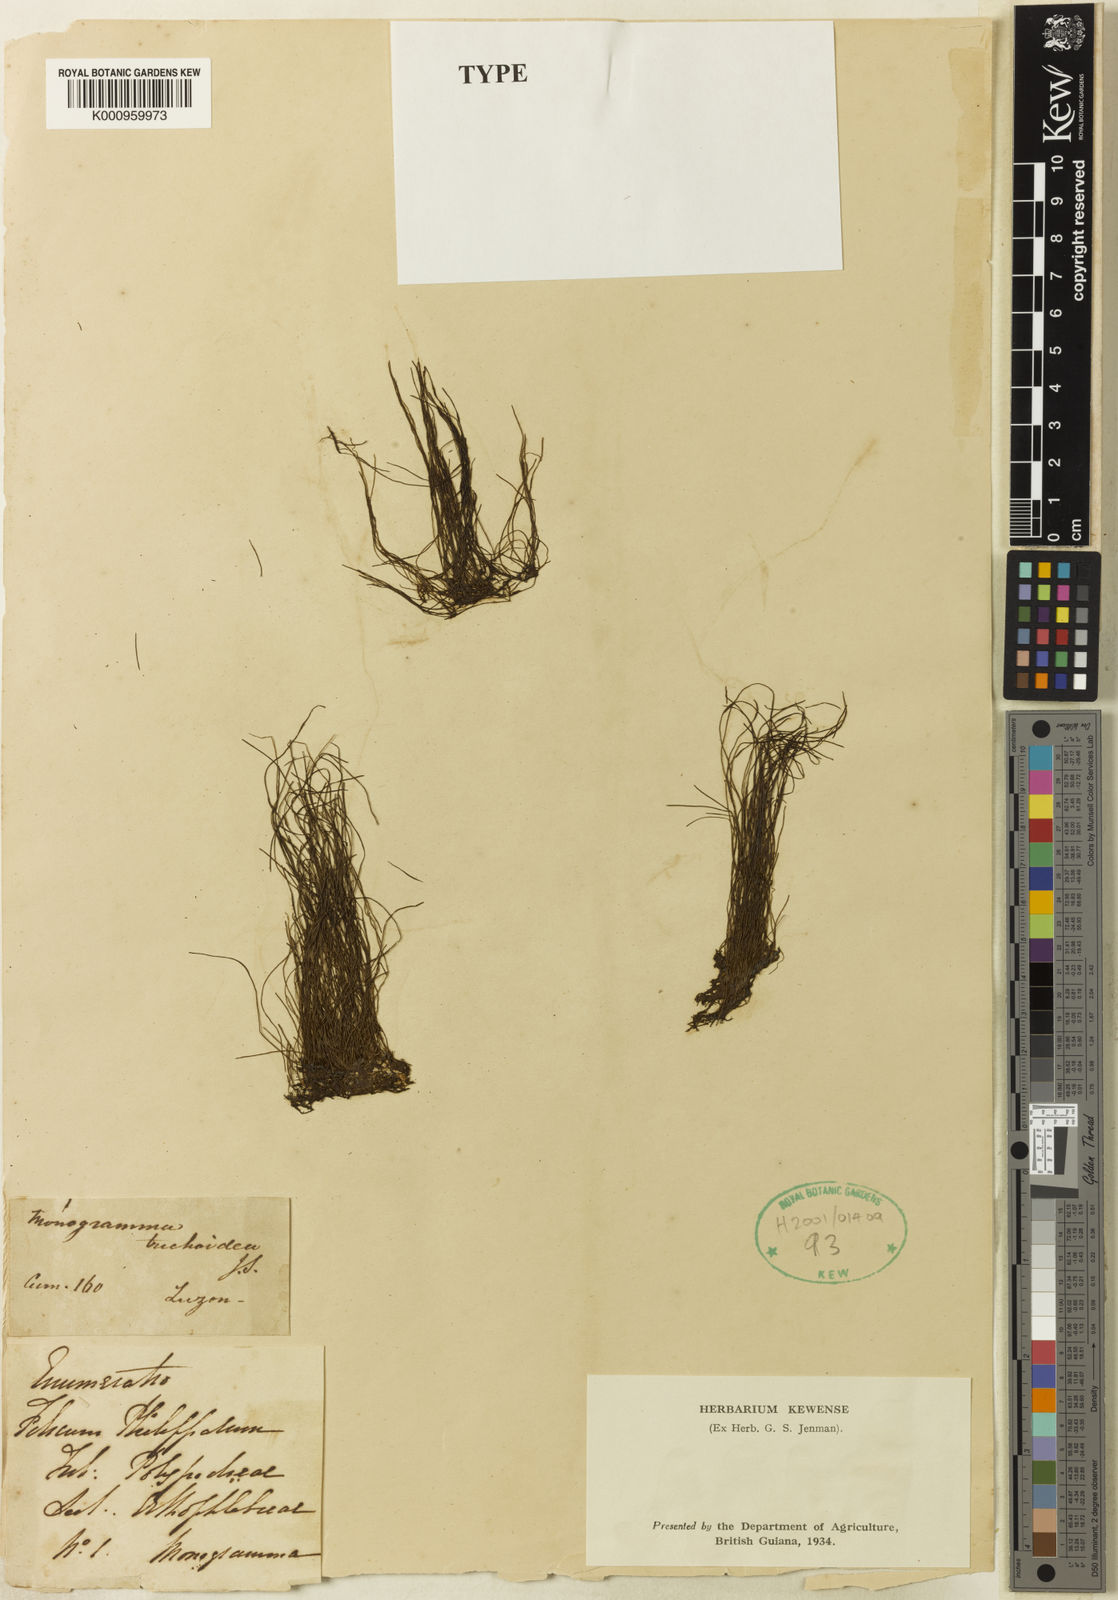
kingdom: Plantae
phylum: Tracheophyta
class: Polypodiopsida
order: Polypodiales
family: Pteridaceae
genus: Vaginularia
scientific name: Vaginularia trichoidea
